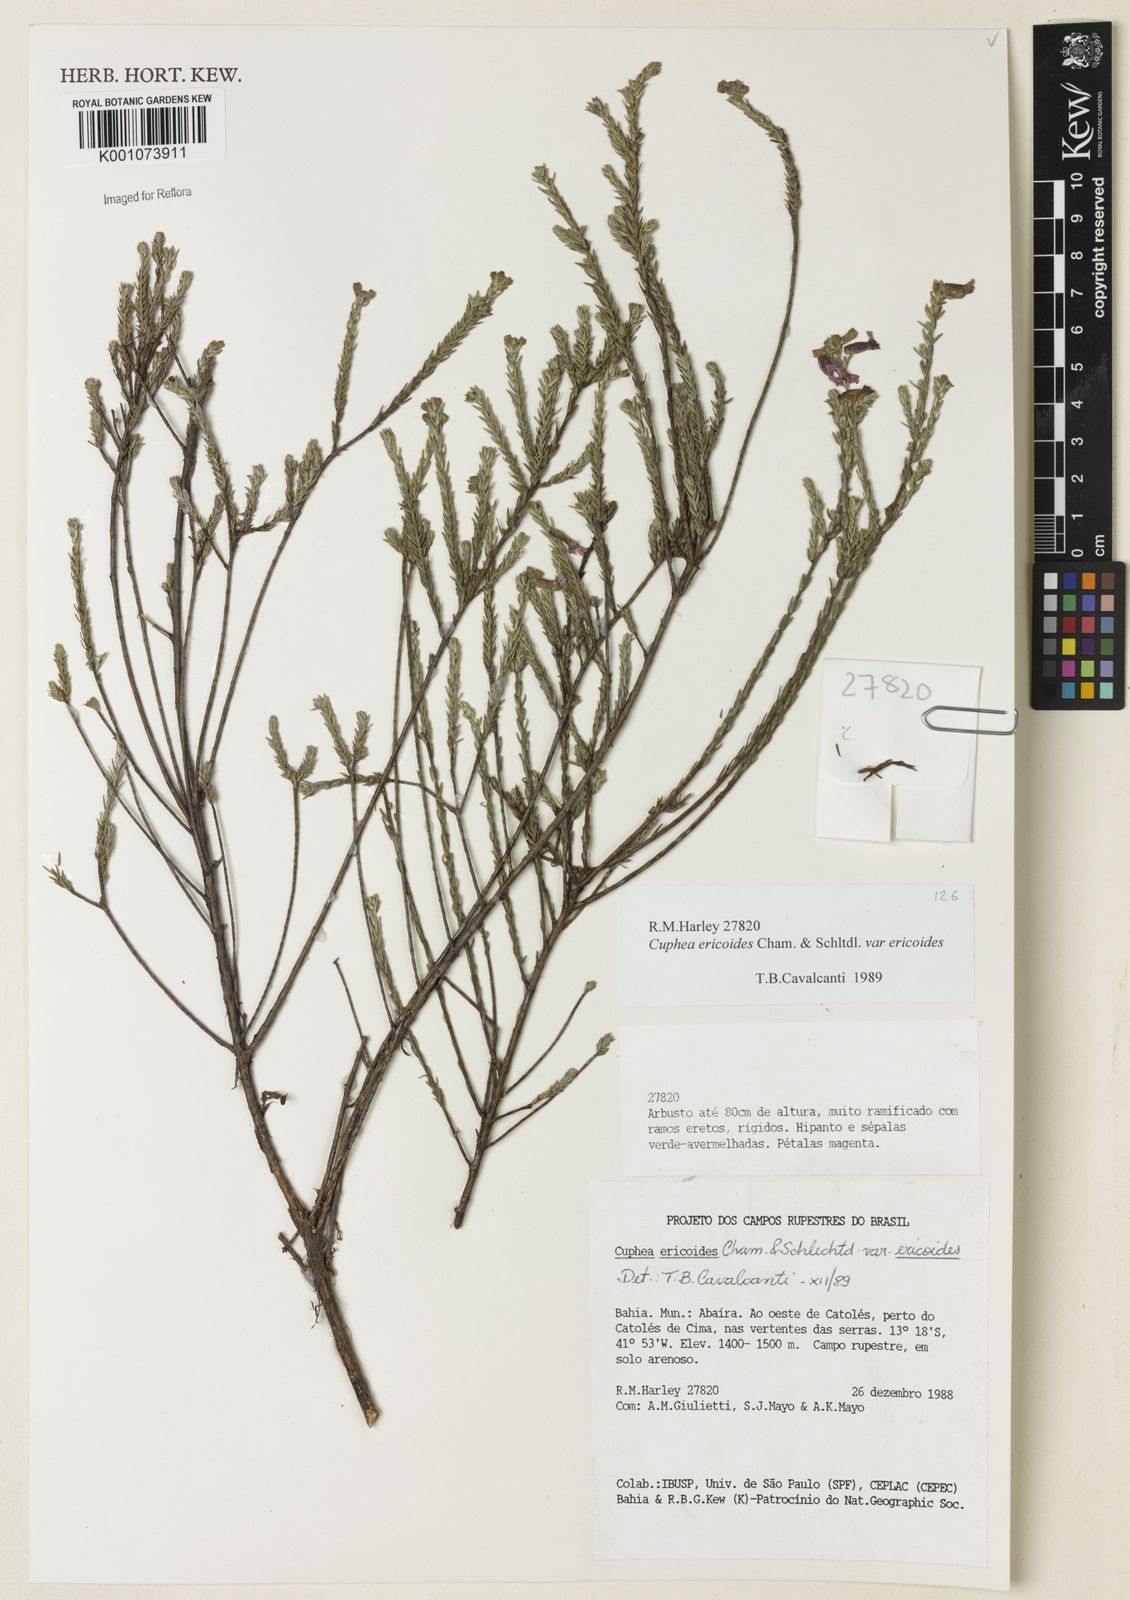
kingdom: Plantae
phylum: Tracheophyta
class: Magnoliopsida
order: Myrtales
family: Lythraceae
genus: Cuphea
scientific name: Cuphea ericoides
